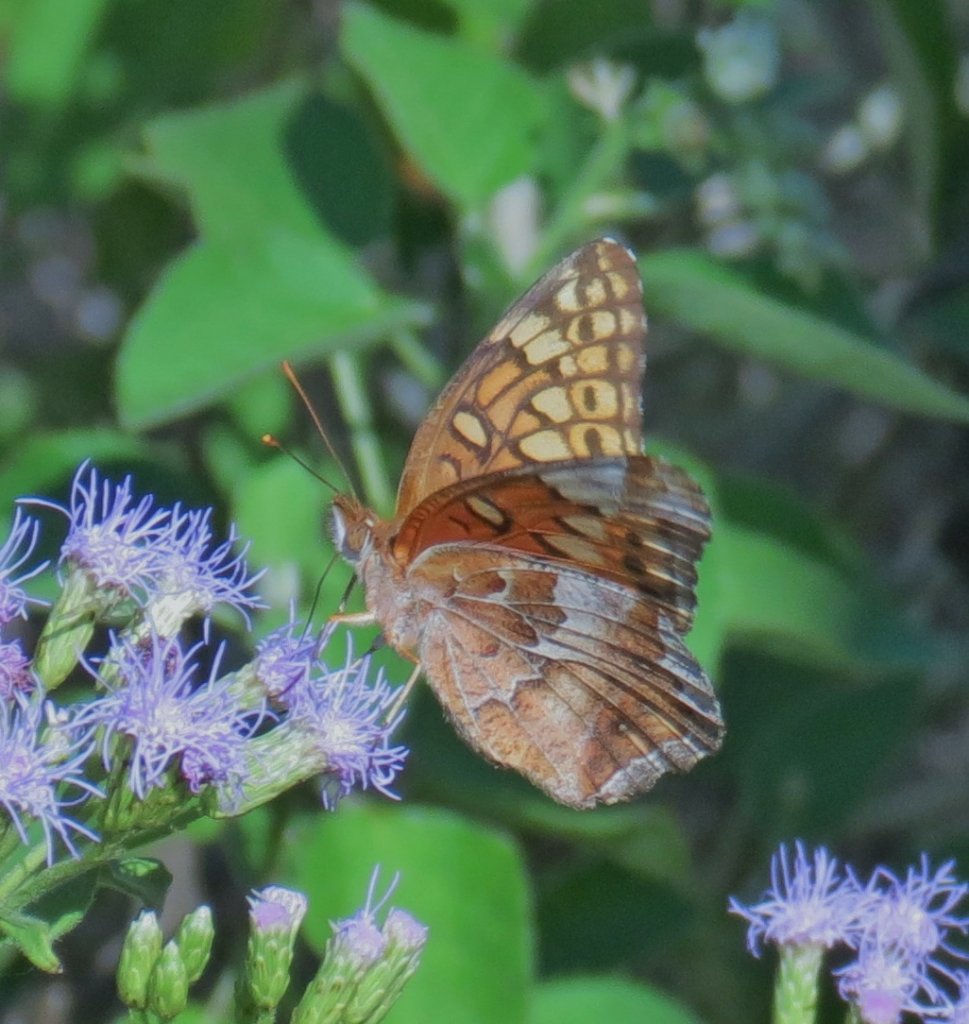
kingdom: Animalia
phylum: Arthropoda
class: Insecta
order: Lepidoptera
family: Nymphalidae
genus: Euptoieta
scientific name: Euptoieta claudia
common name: Variegated Fritillary
